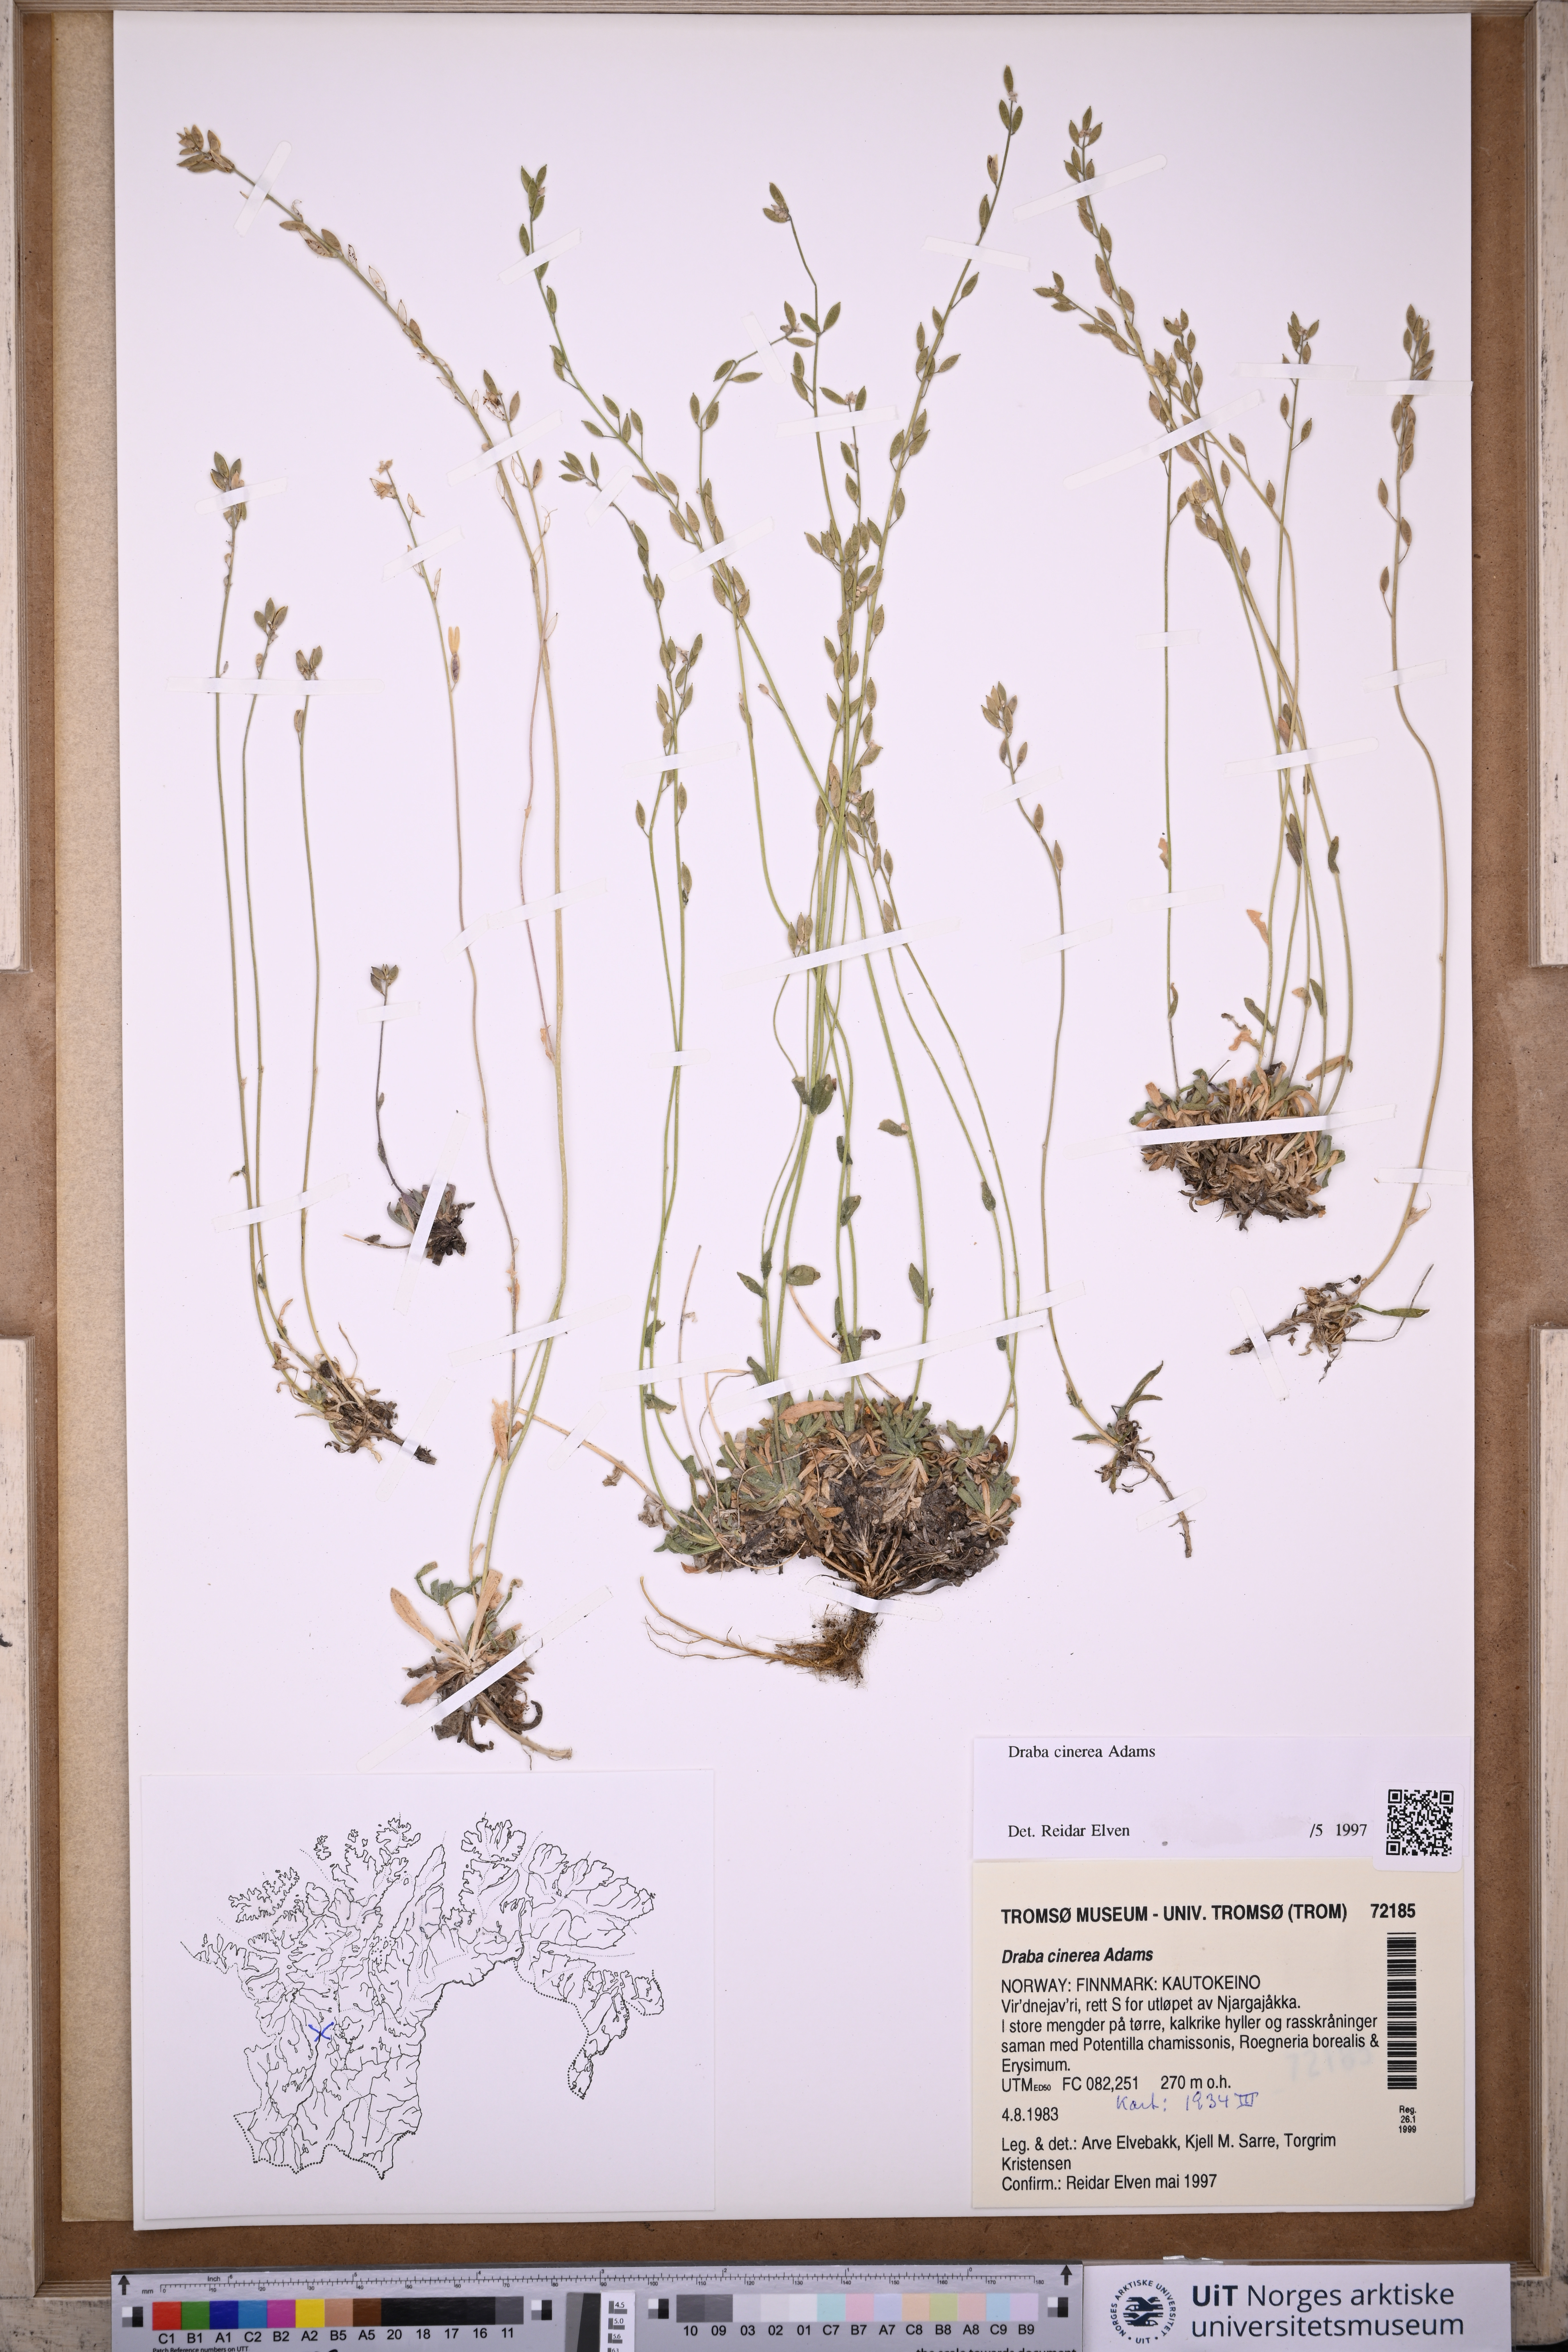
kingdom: Plantae
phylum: Tracheophyta
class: Magnoliopsida
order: Brassicales
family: Brassicaceae
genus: Draba
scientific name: Draba arctica
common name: Arctic draba
